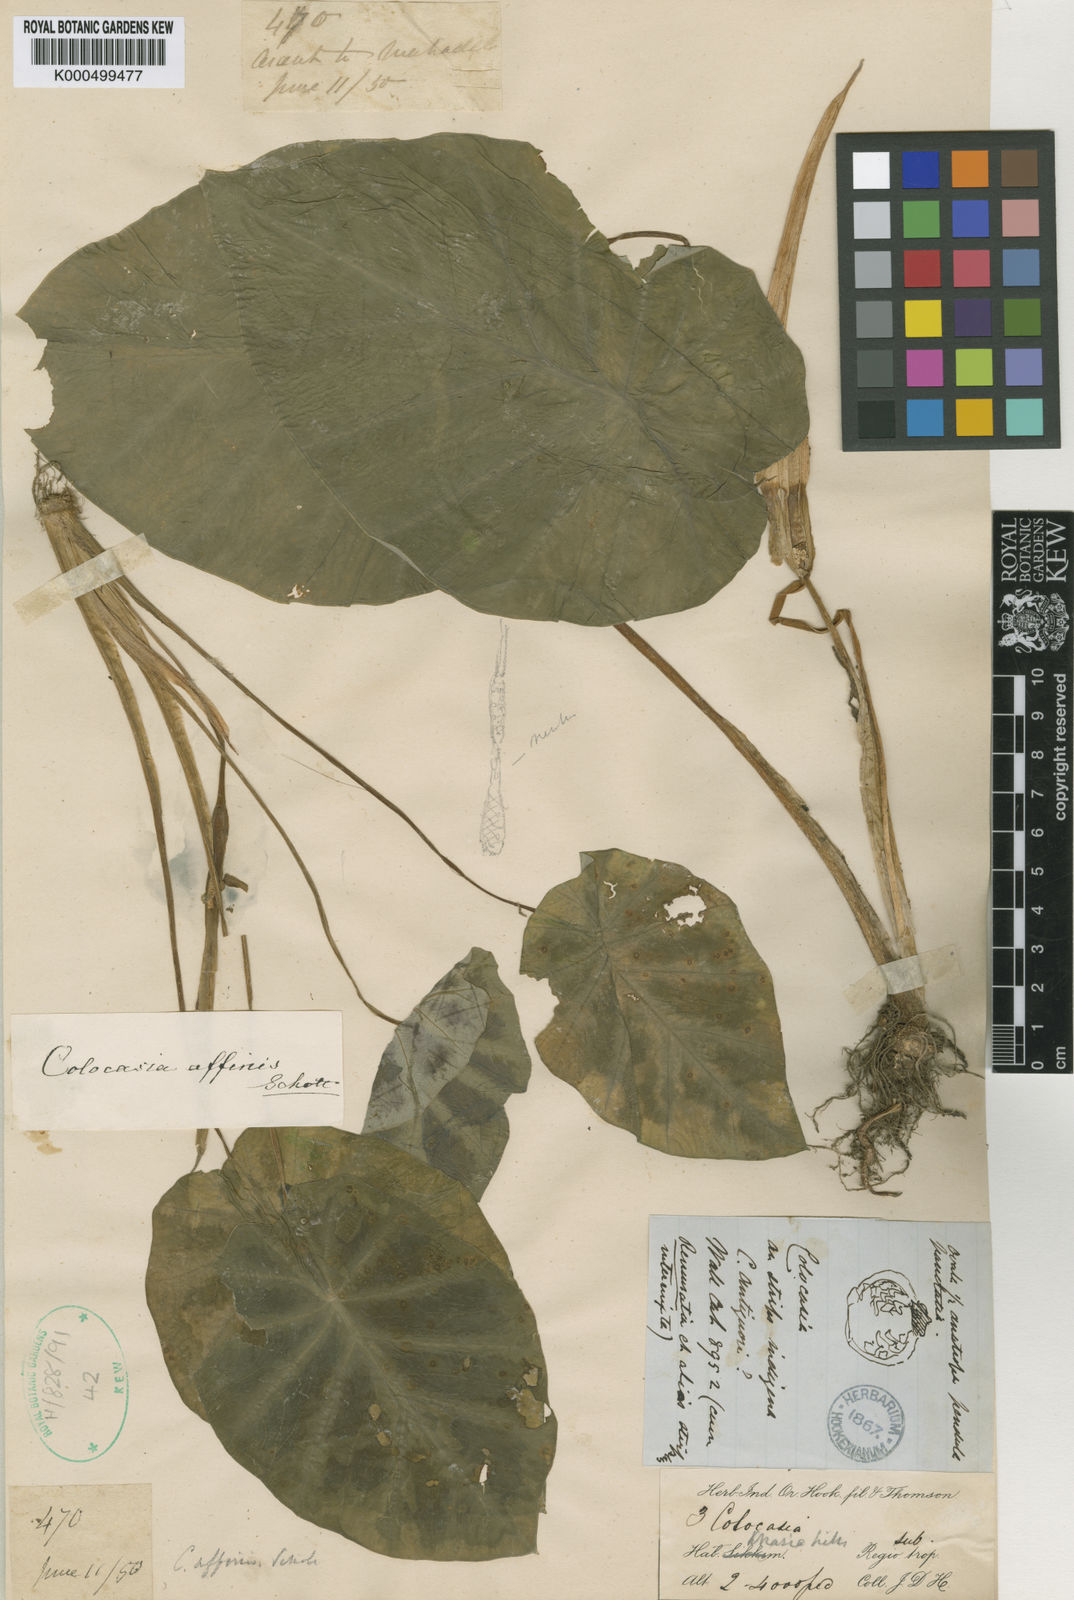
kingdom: Plantae
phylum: Tracheophyta
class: Liliopsida
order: Alismatales
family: Araceae
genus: Colocasia
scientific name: Colocasia affinis
